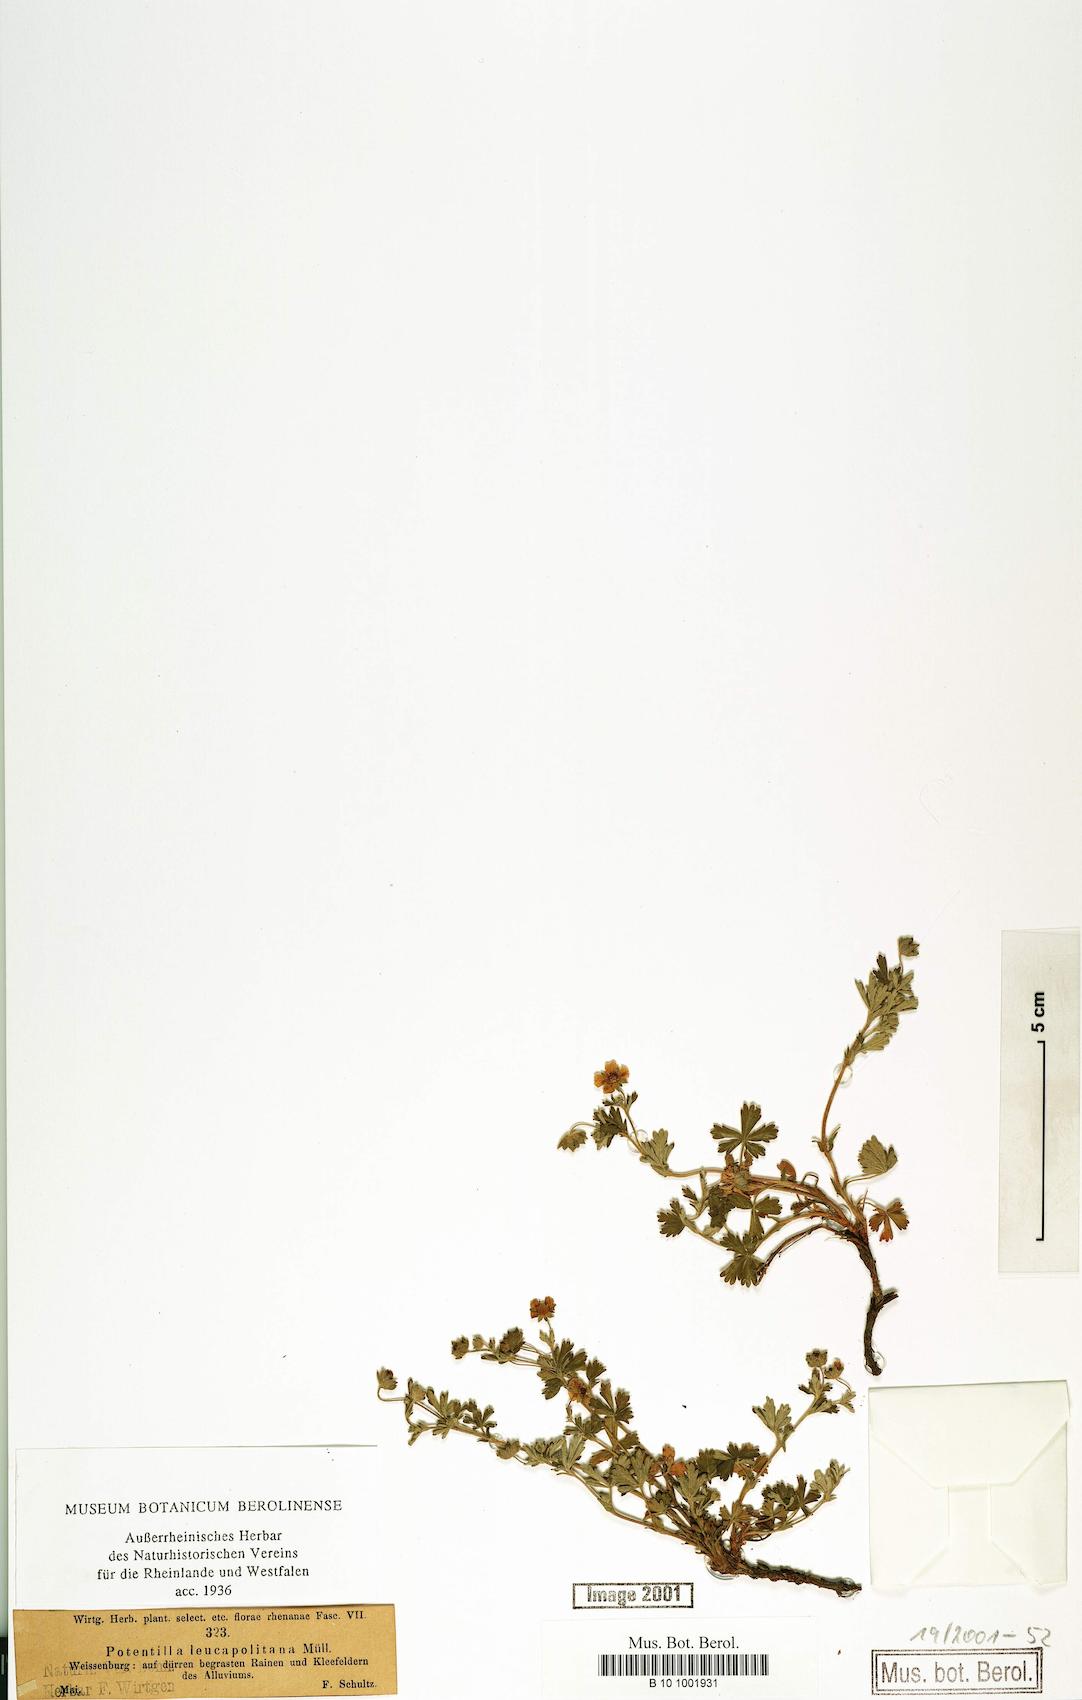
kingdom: Plantae
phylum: Tracheophyta
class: Magnoliopsida
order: Rosales
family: Rosaceae
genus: Potentilla
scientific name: Potentilla leucopolitana
